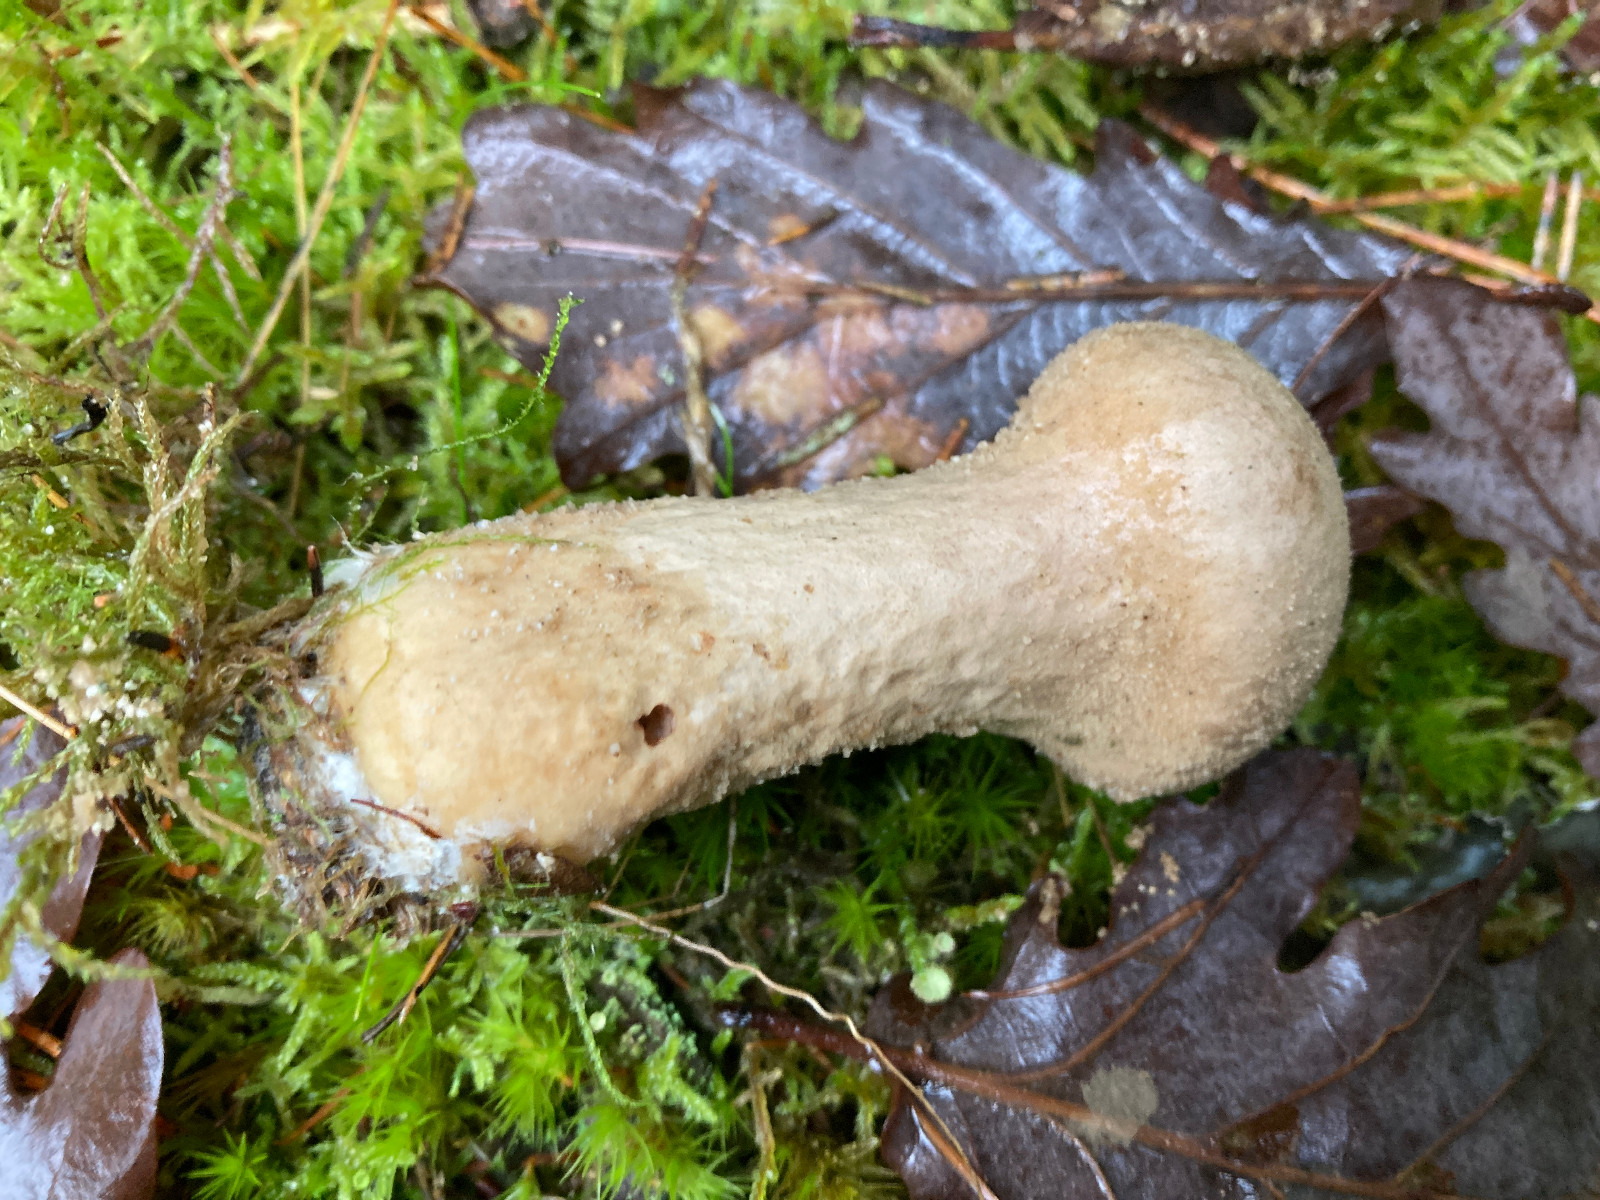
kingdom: Fungi
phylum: Basidiomycota
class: Agaricomycetes
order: Agaricales
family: Agaricaceae
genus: Lycoperdon
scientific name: Lycoperdon
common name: støvbold
